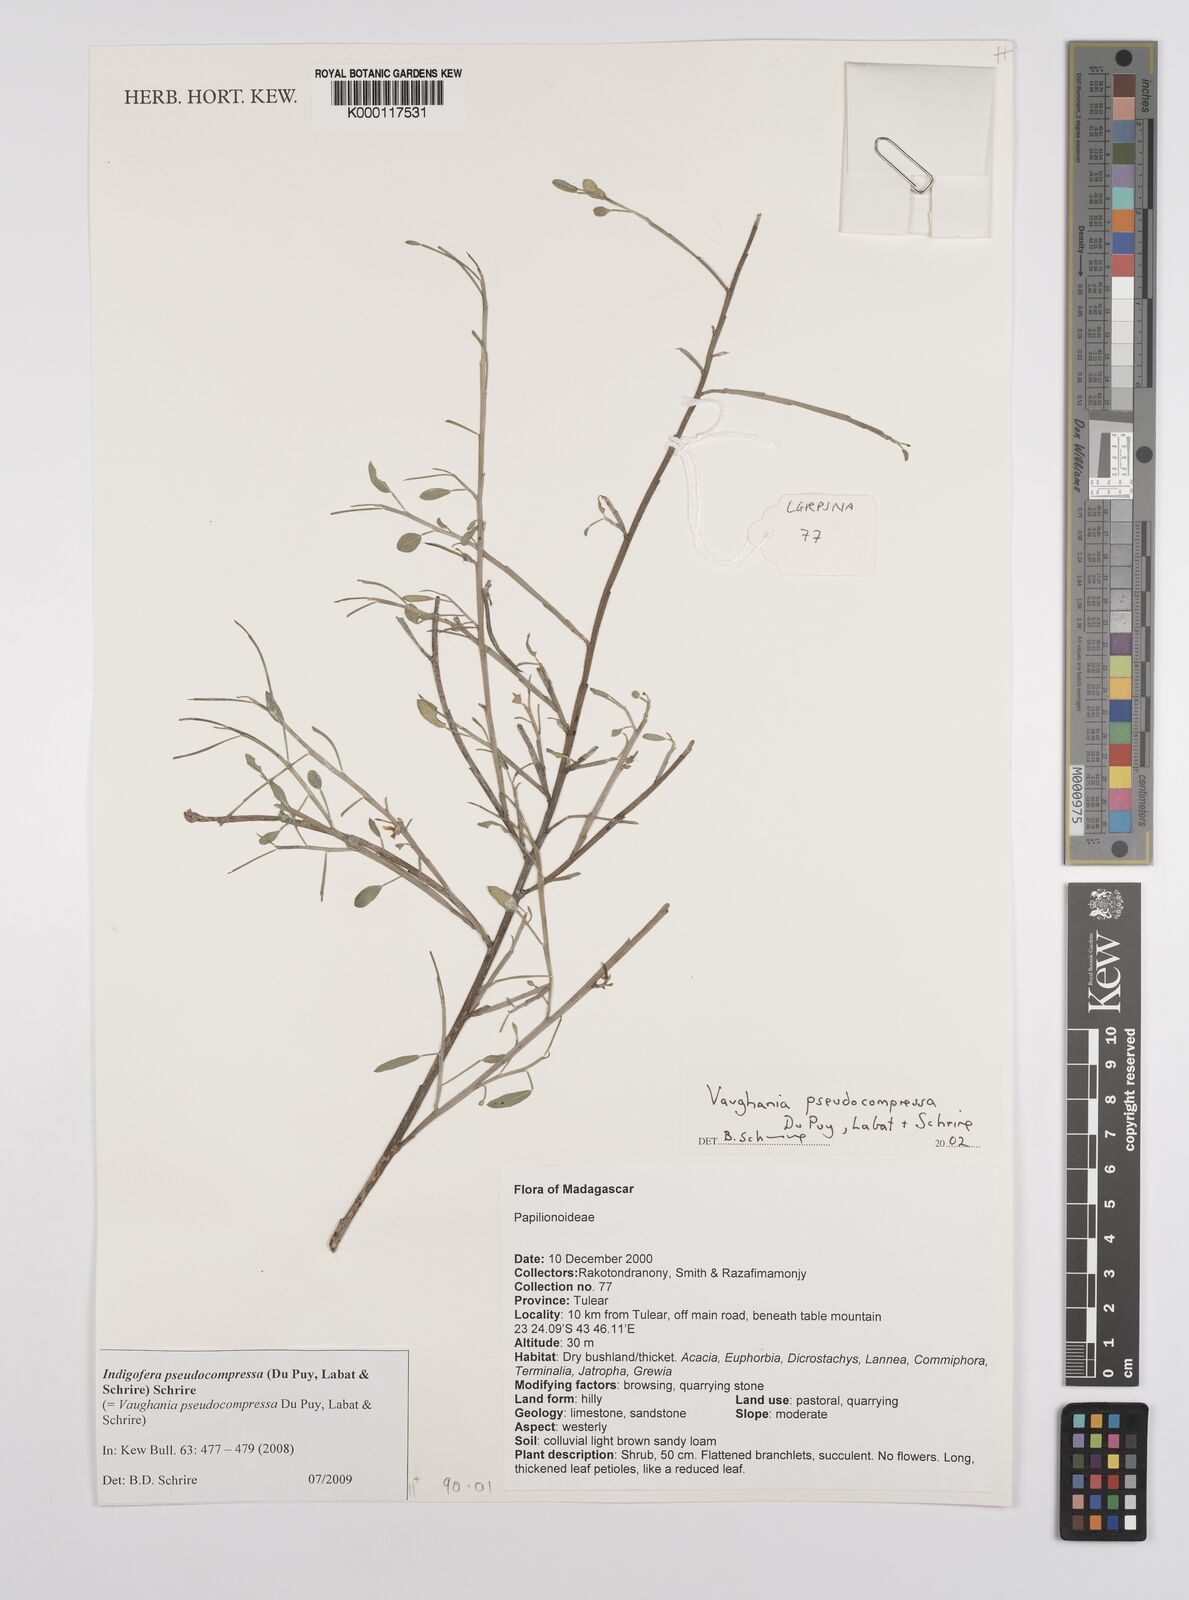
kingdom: Animalia
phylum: Cnidaria
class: Anthozoa
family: Vaughaniidae
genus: Vaughania
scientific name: Vaughania
